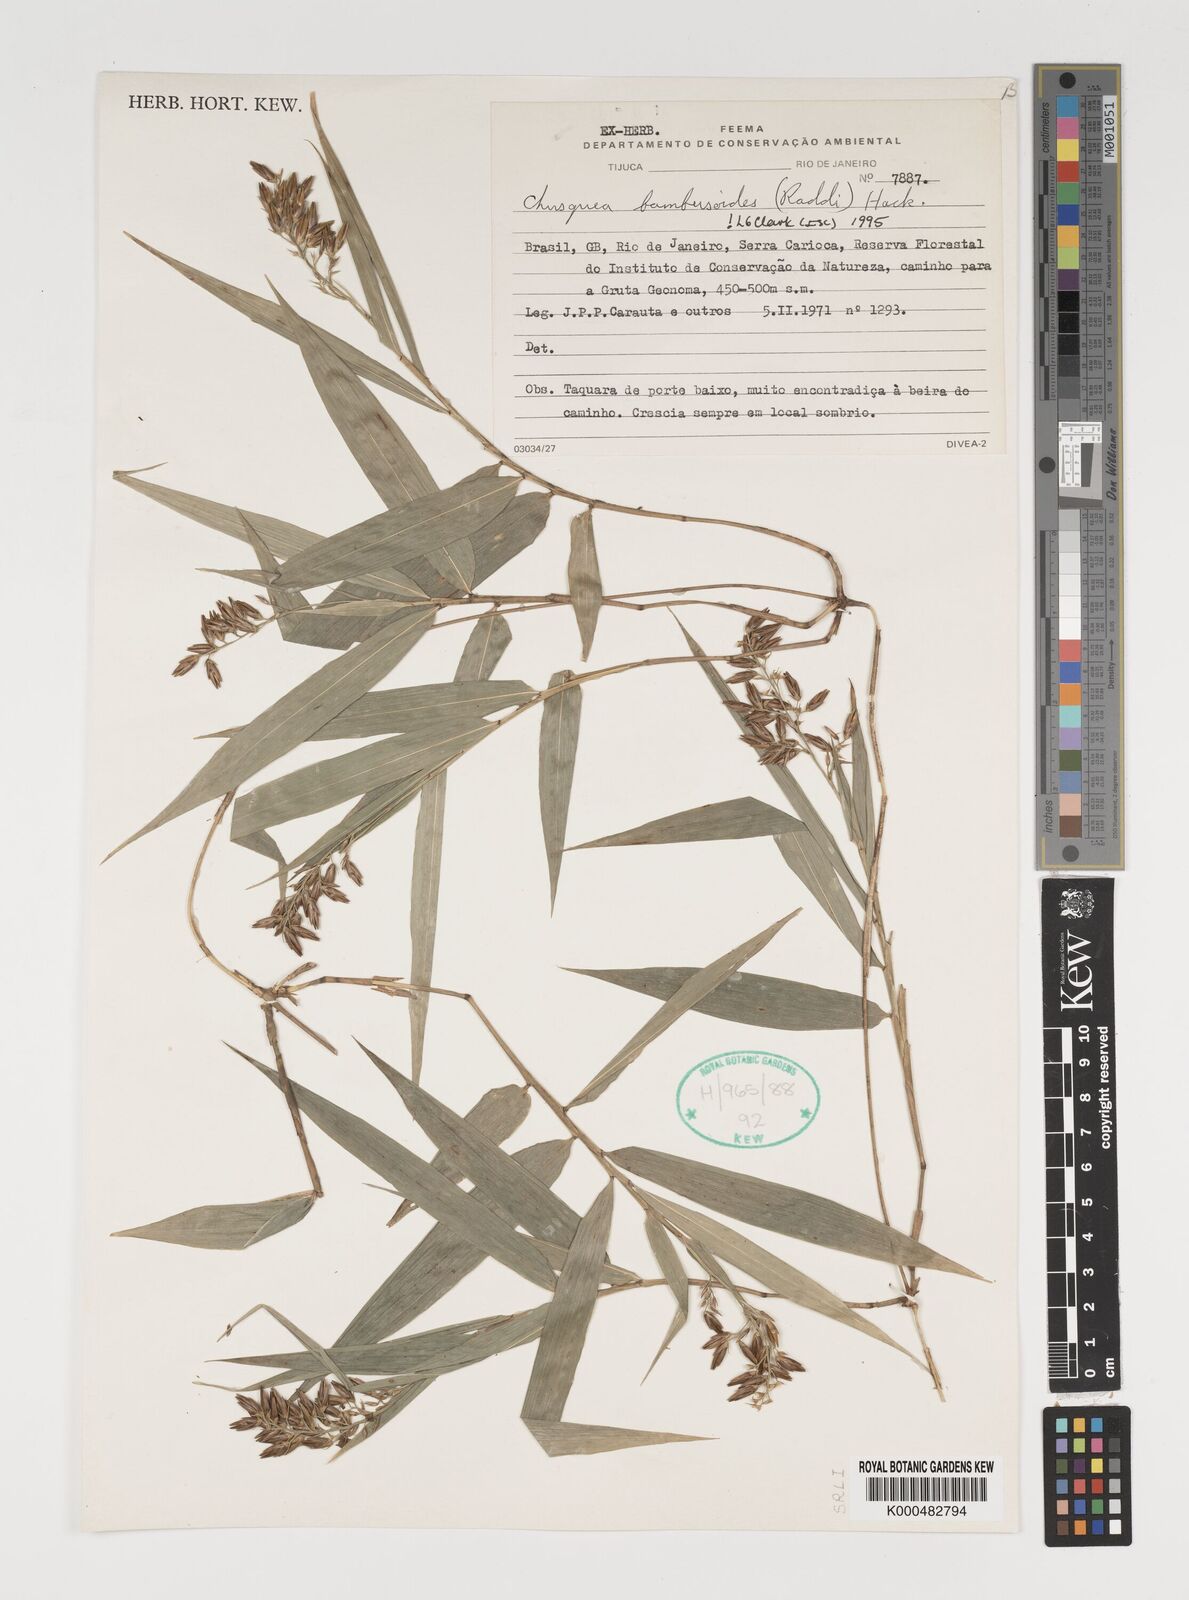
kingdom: Plantae
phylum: Tracheophyta
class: Liliopsida
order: Poales
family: Poaceae
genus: Chusquea
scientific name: Chusquea bambusoides
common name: Brazil scrambling bamboo
